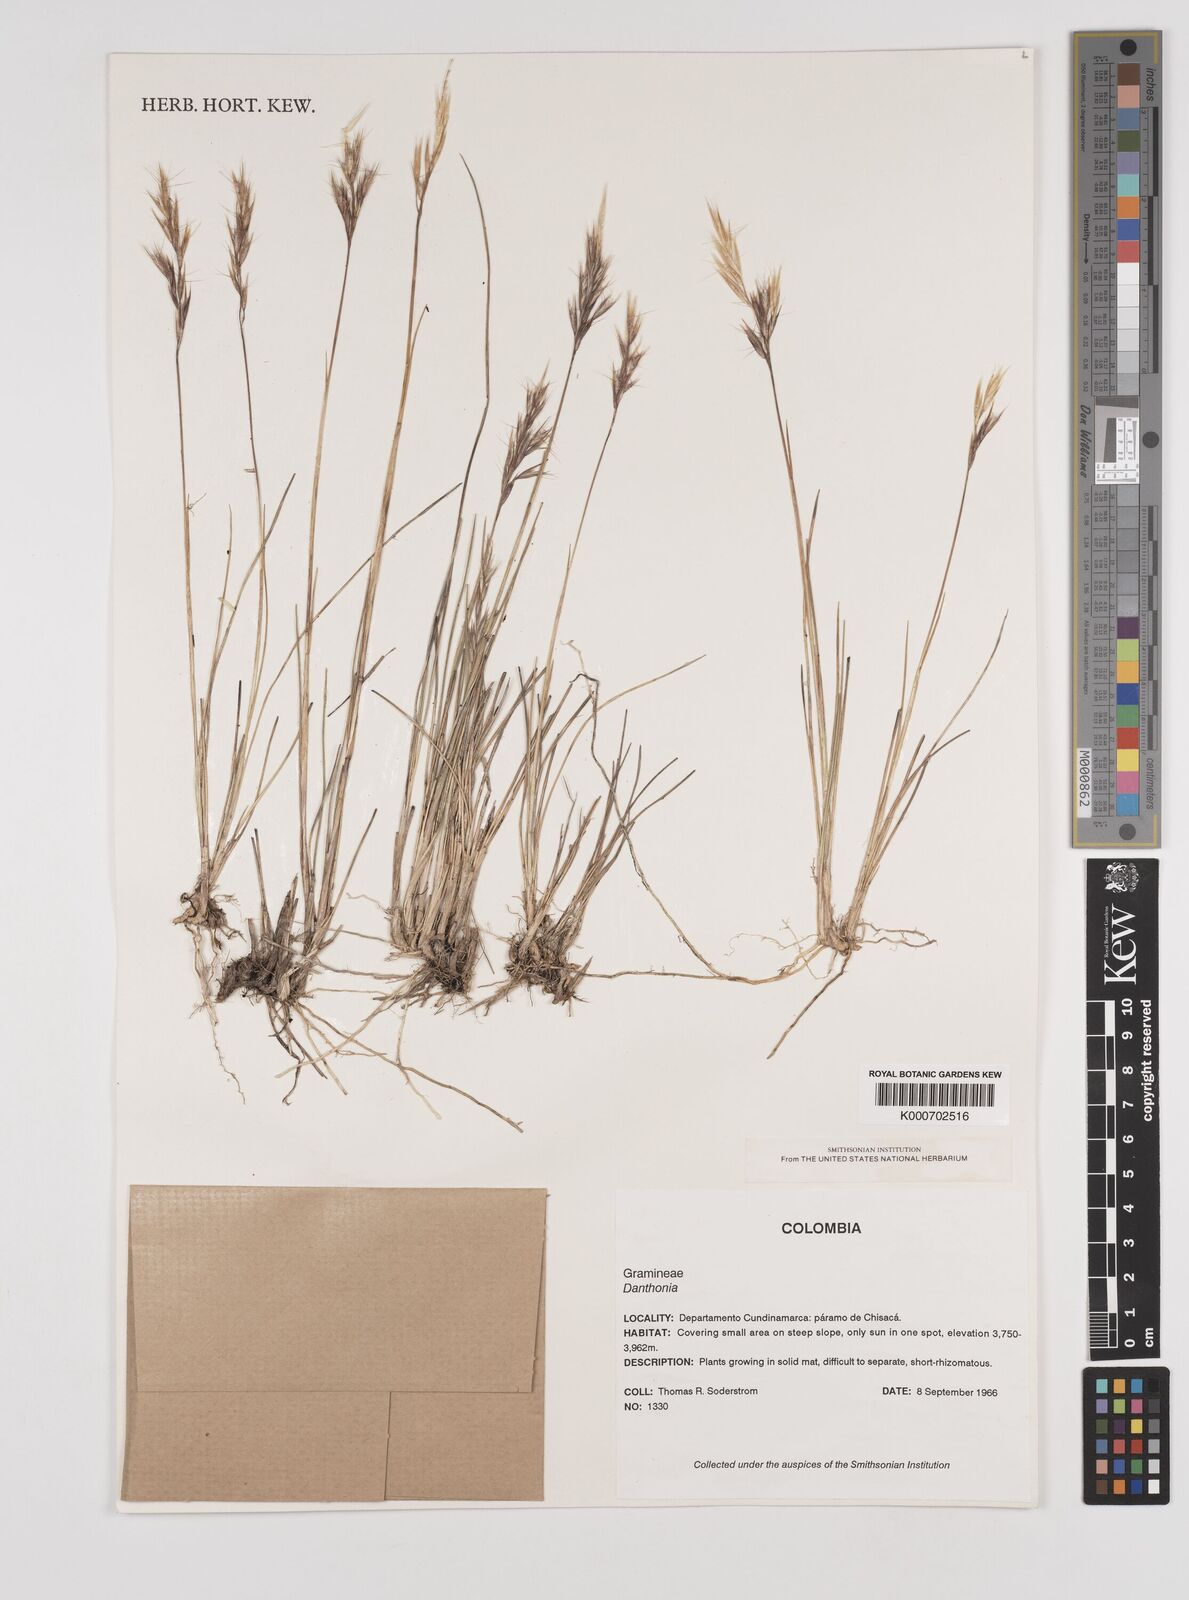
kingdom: Plantae
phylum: Tracheophyta
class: Liliopsida
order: Poales
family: Poaceae
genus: Danthonia
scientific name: Danthonia secundiflora
